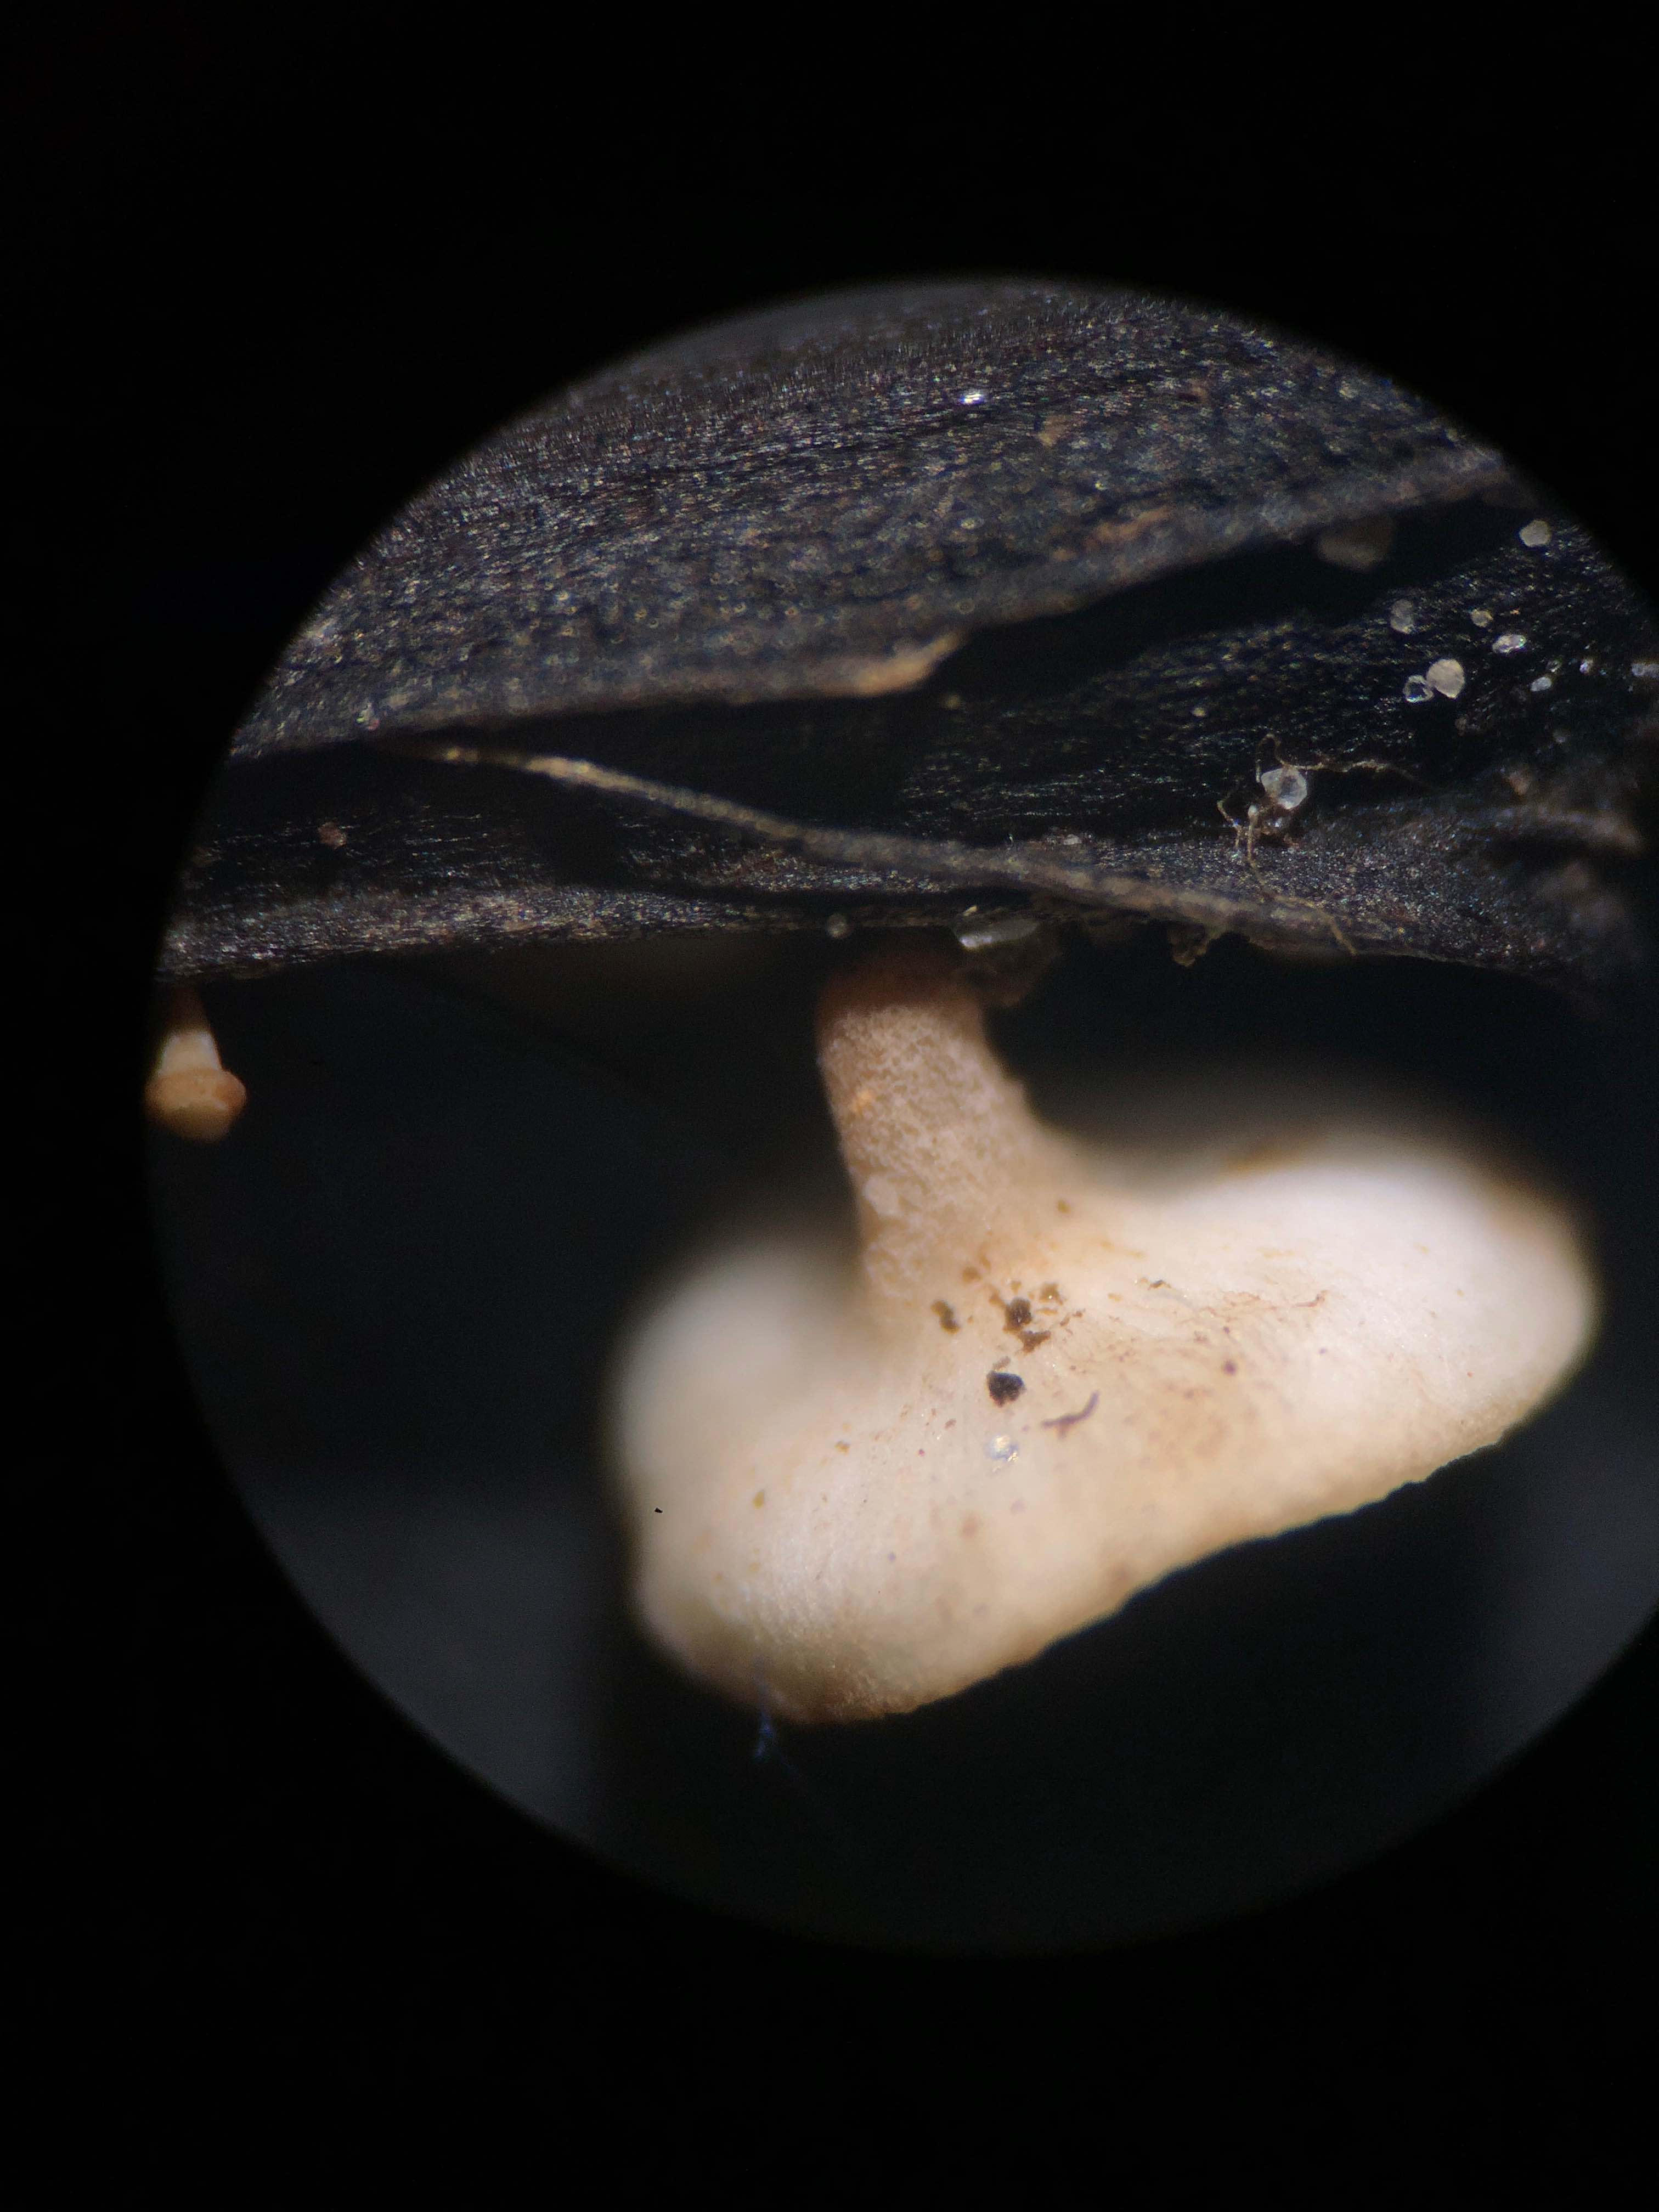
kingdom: Fungi
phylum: Ascomycota
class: Leotiomycetes
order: Helotiales
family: Helotiaceae
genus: Hymenoscyphus
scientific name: Hymenoscyphus fraxineus
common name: asketoptørre-stilkskive
